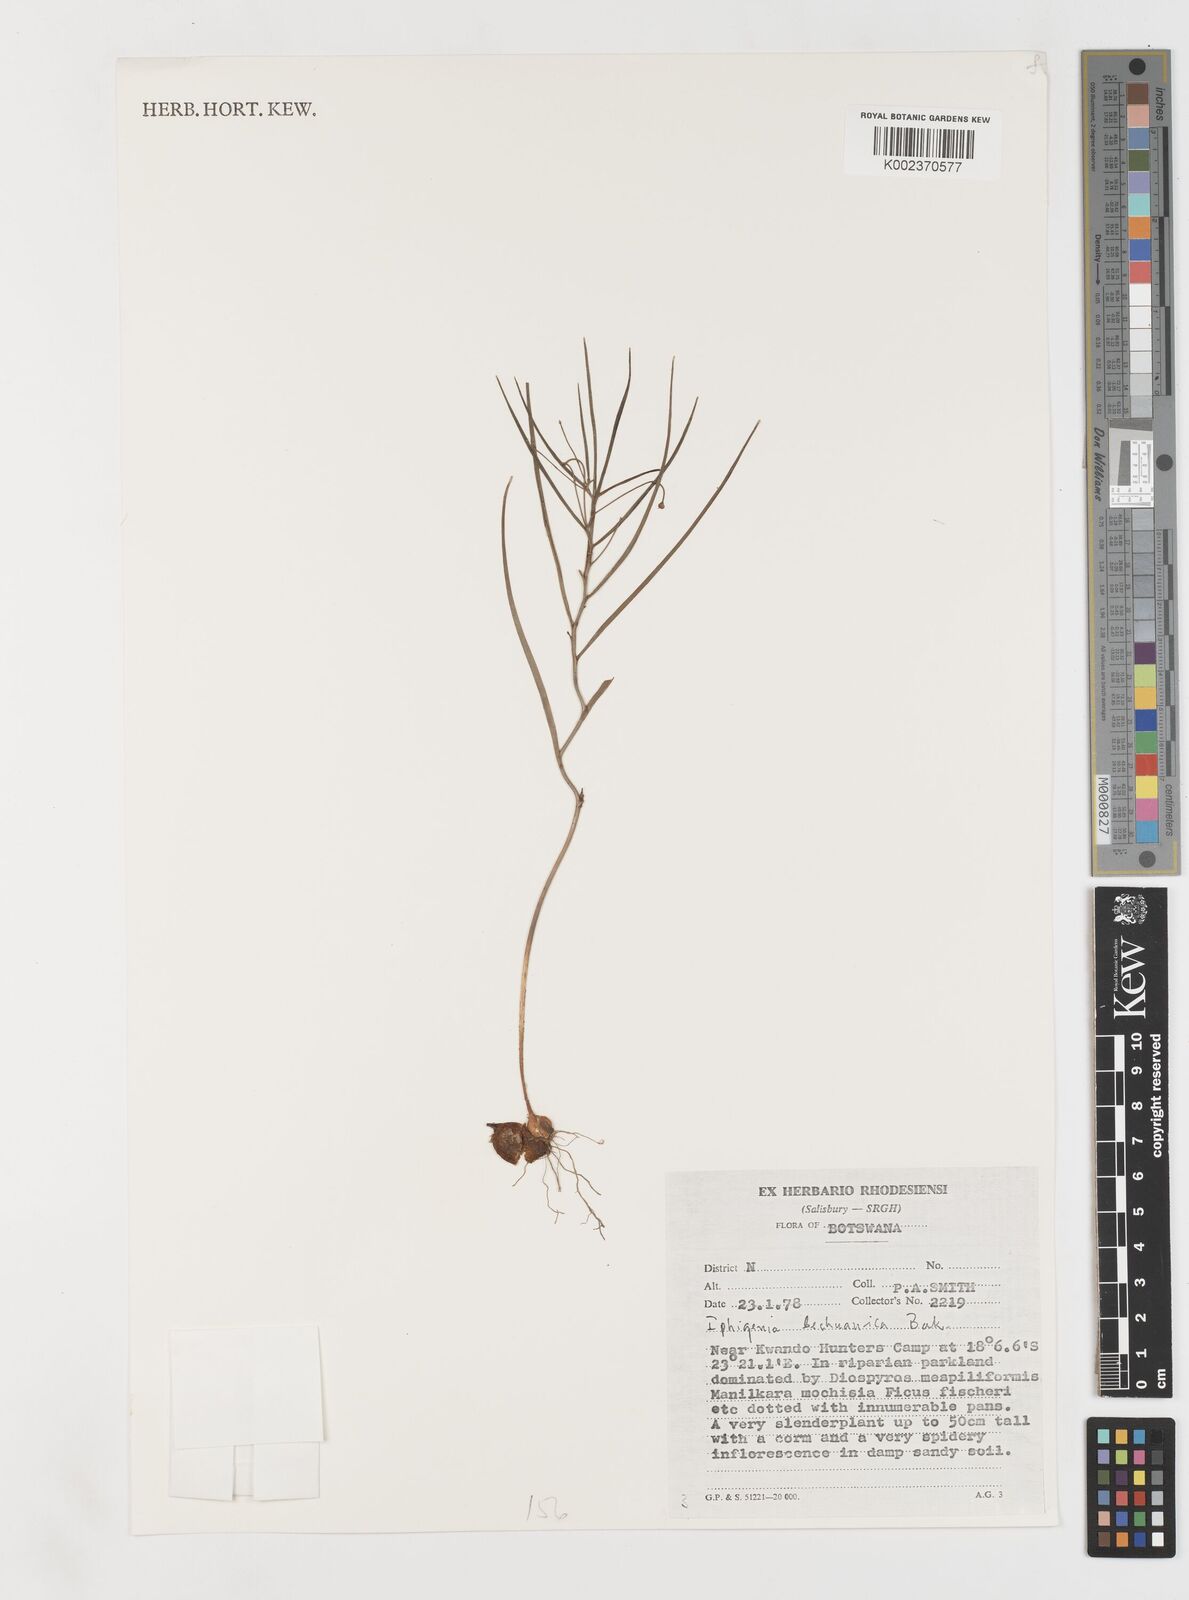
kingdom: Plantae
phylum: Tracheophyta
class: Liliopsida
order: Liliales
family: Colchicaceae
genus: Iphigenia
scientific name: Iphigenia oliveri
